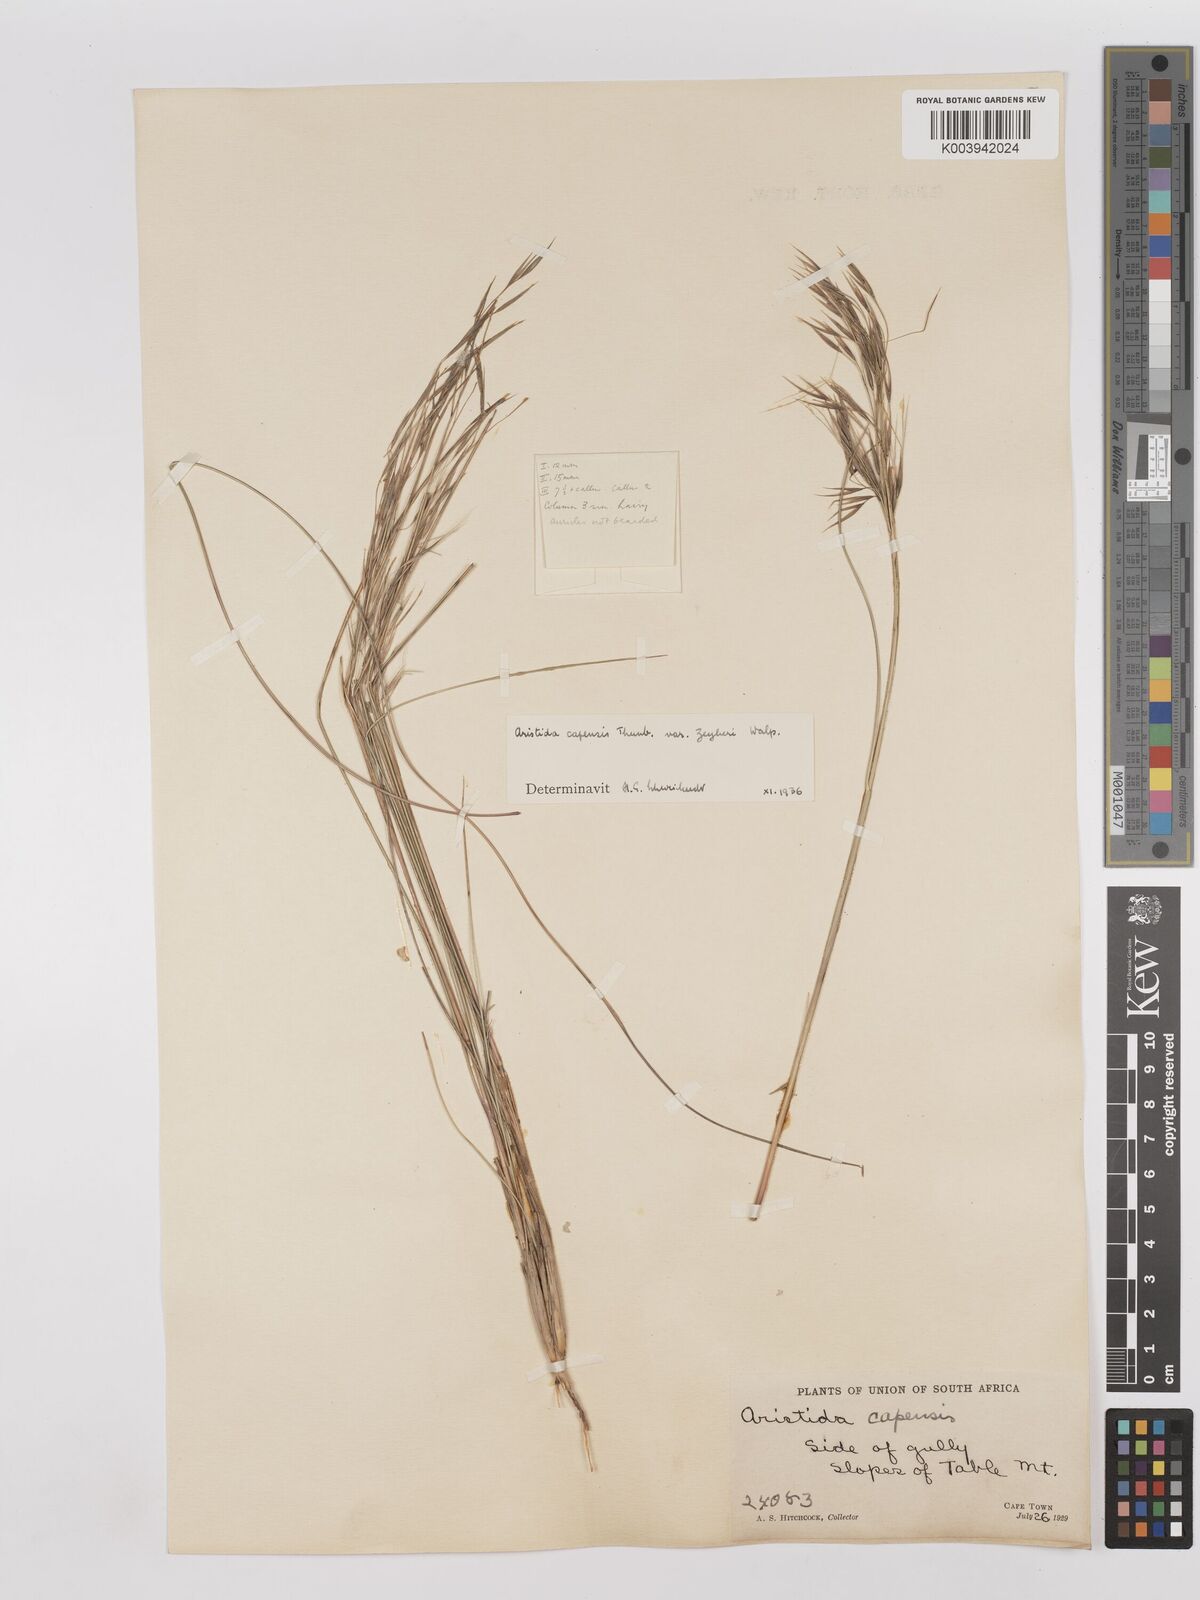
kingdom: Plantae
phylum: Tracheophyta
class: Liliopsida
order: Poales
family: Poaceae
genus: Stipagrostis
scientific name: Stipagrostis zeyheri
